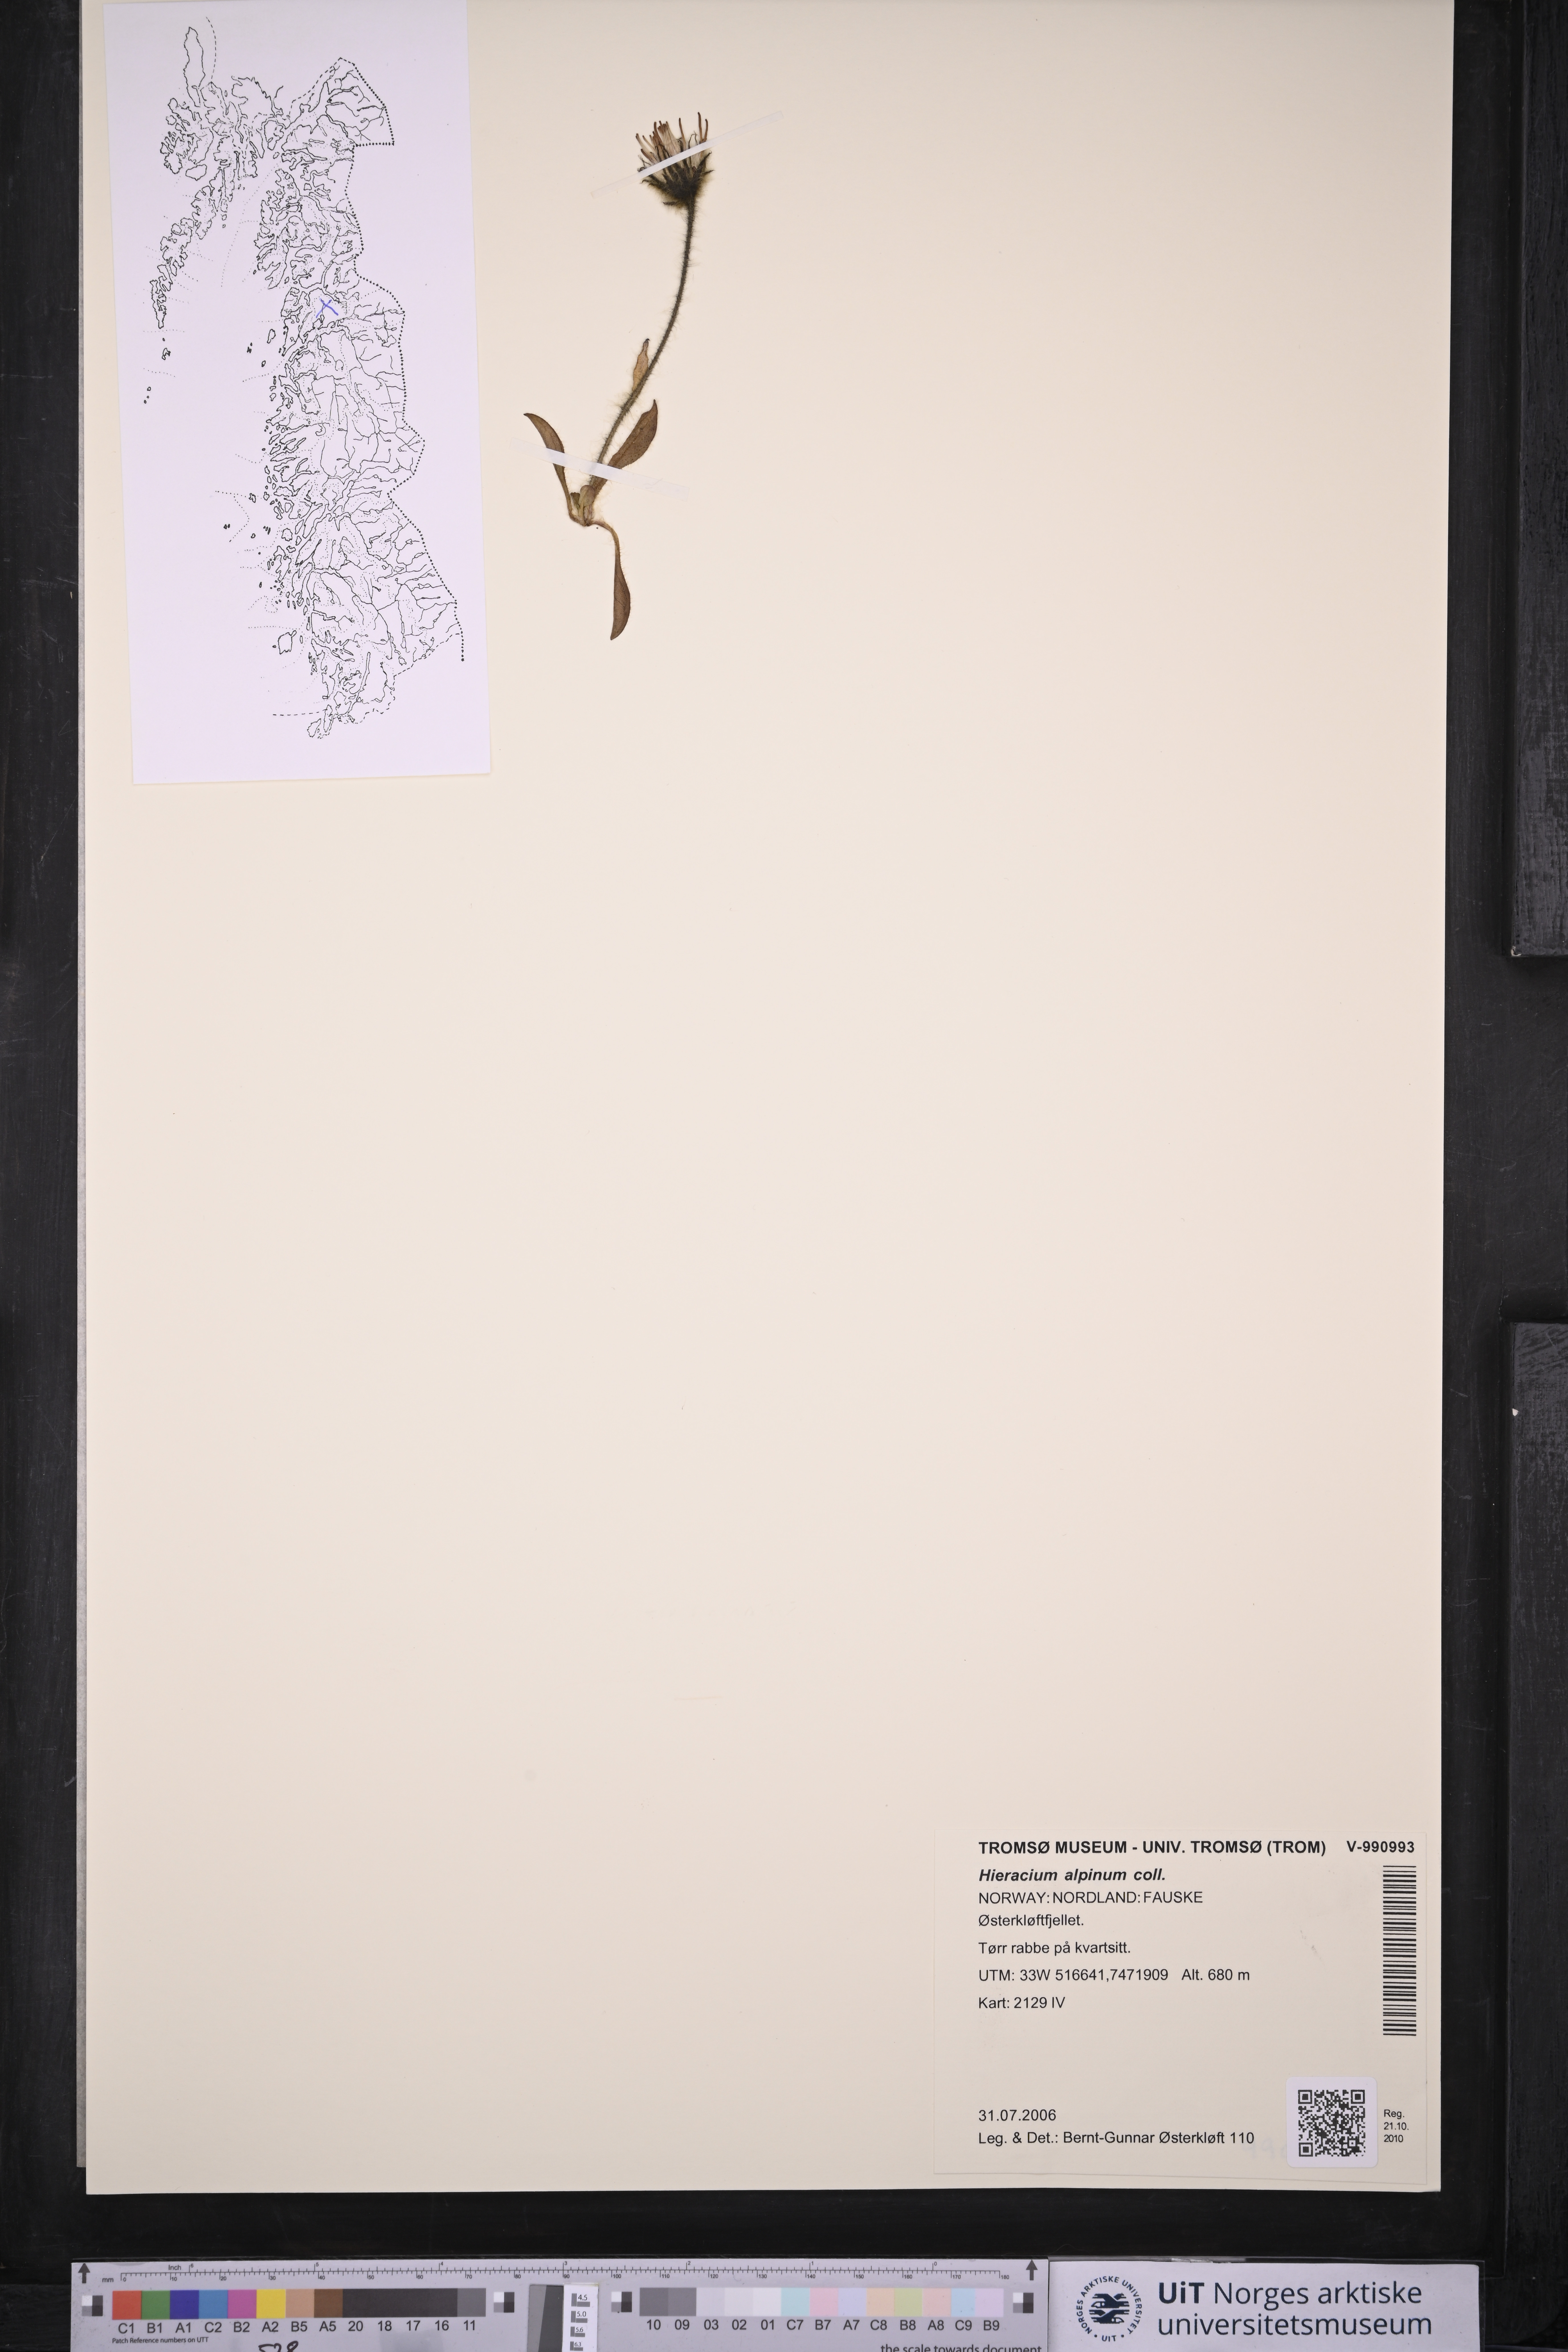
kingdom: Plantae
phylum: Tracheophyta
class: Magnoliopsida
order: Asterales
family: Asteraceae
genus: Hieracium
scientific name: Hieracium alpinum
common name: Alpine hawkweed
